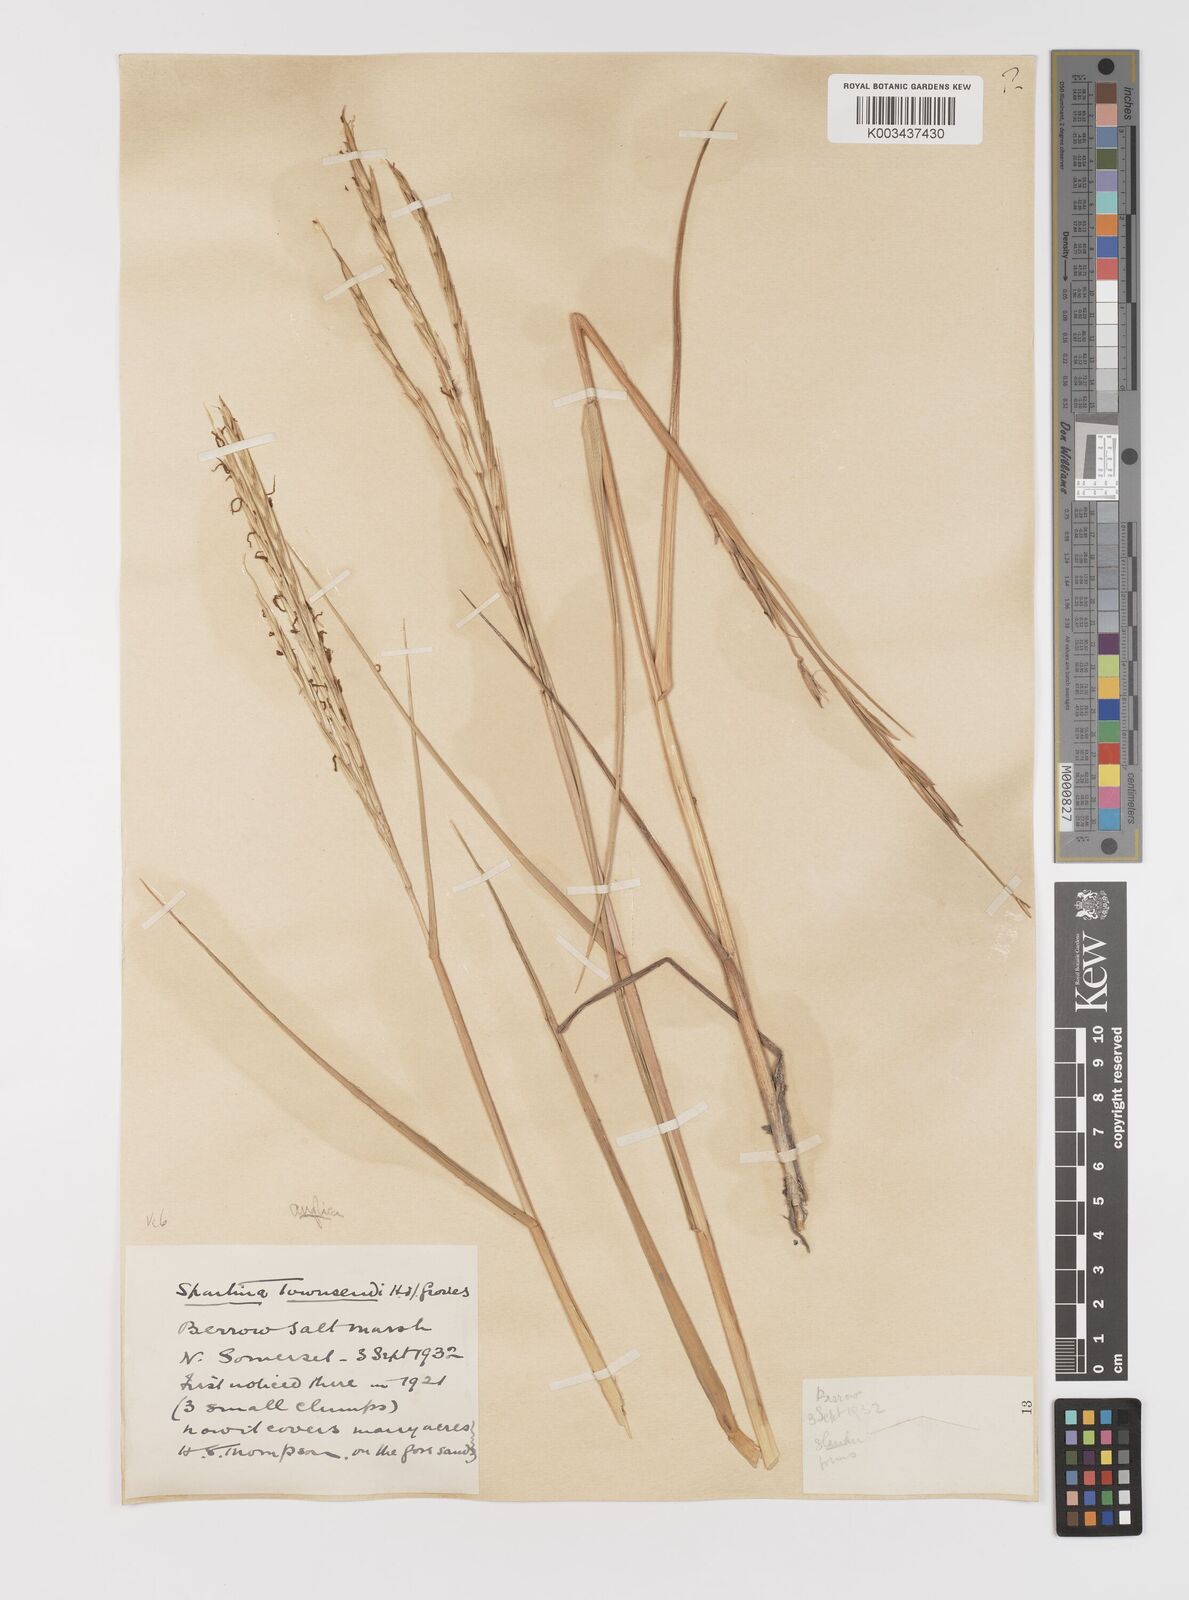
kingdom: Plantae
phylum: Tracheophyta
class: Liliopsida
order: Poales
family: Poaceae
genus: Sporobolus
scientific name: Sporobolus anglicus
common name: English cordgrass
